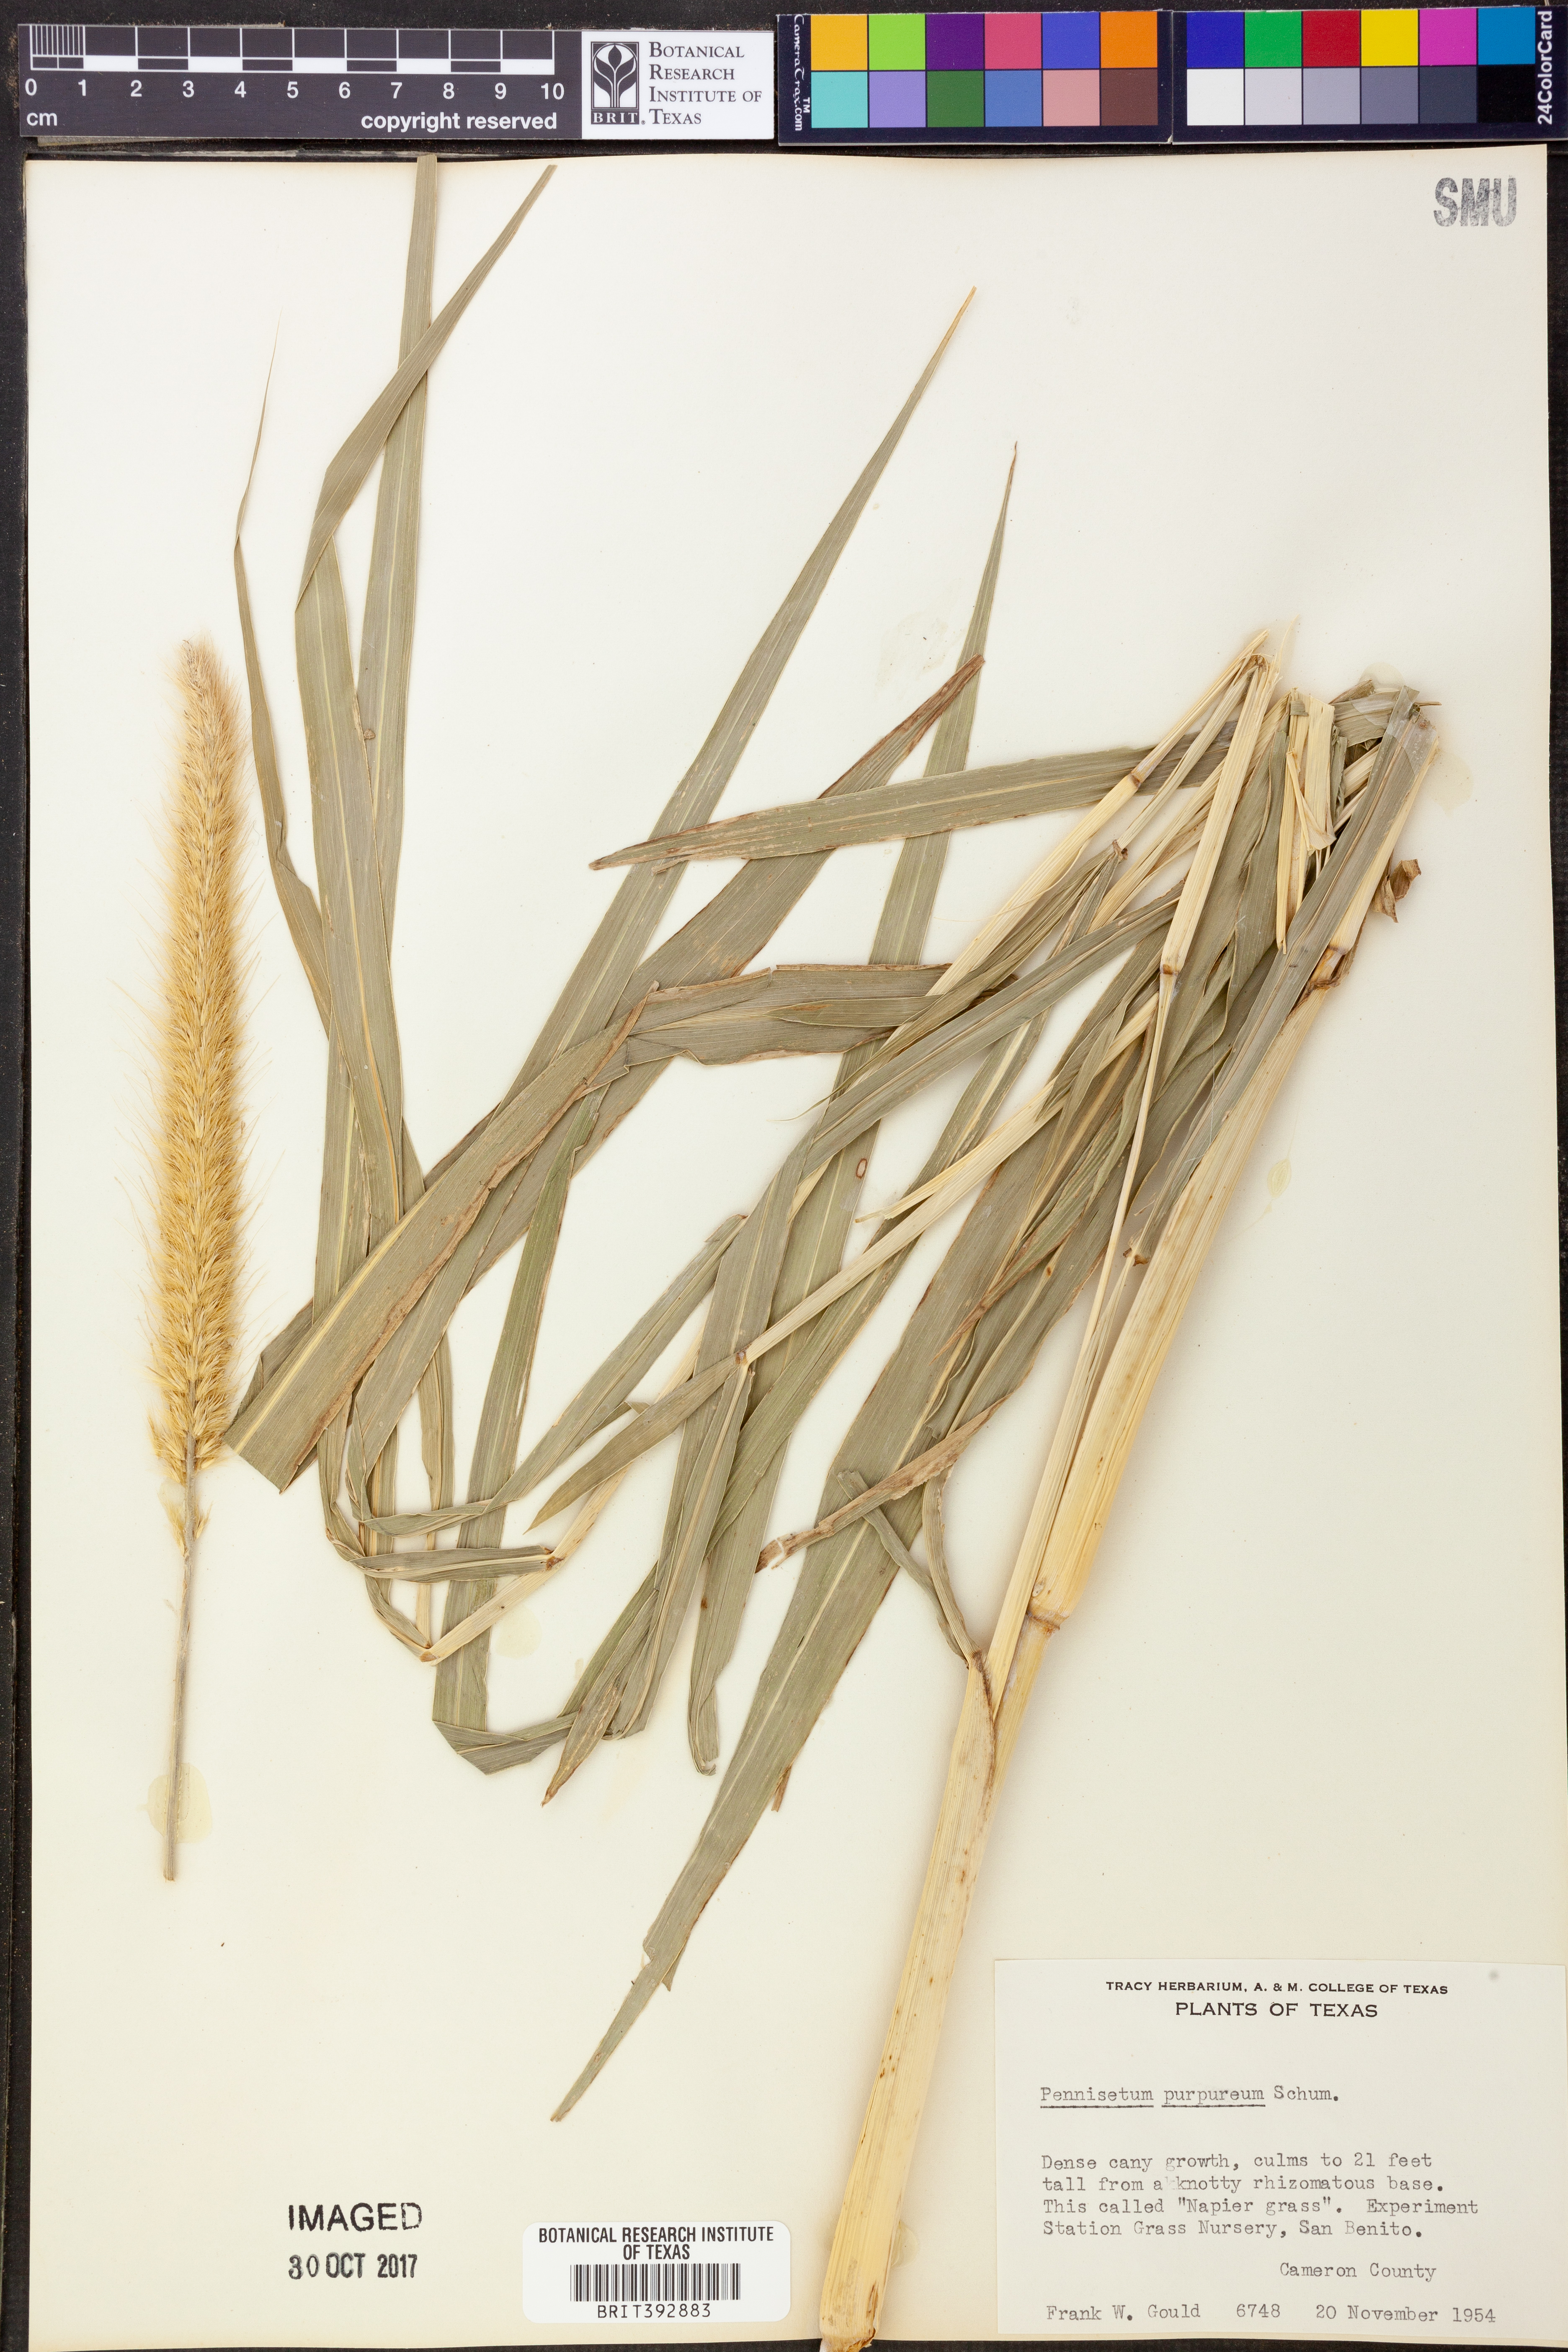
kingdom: Plantae
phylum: Tracheophyta
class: Liliopsida
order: Poales
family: Poaceae
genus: Cenchrus
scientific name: Cenchrus purpureus
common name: Elephant grass
